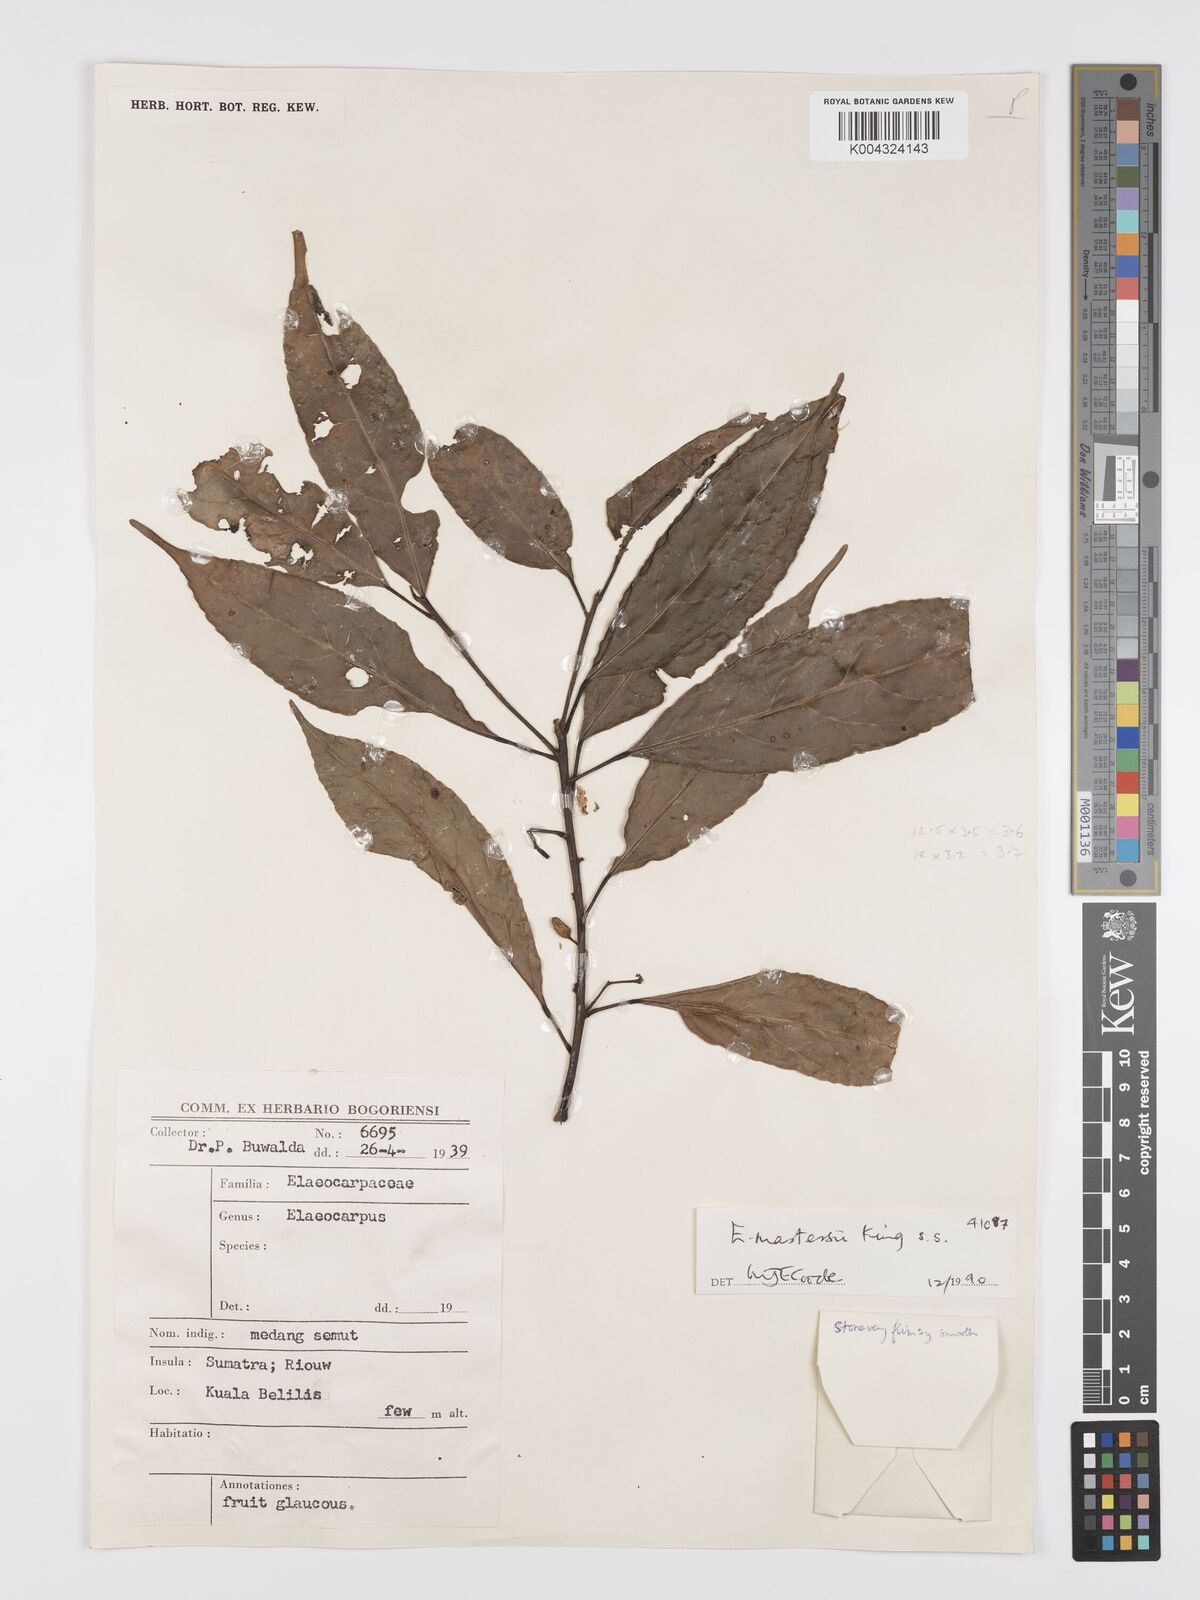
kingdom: Plantae
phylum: Tracheophyta
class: Magnoliopsida
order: Oxalidales
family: Elaeocarpaceae
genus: Elaeocarpus
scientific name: Elaeocarpus mastersii
